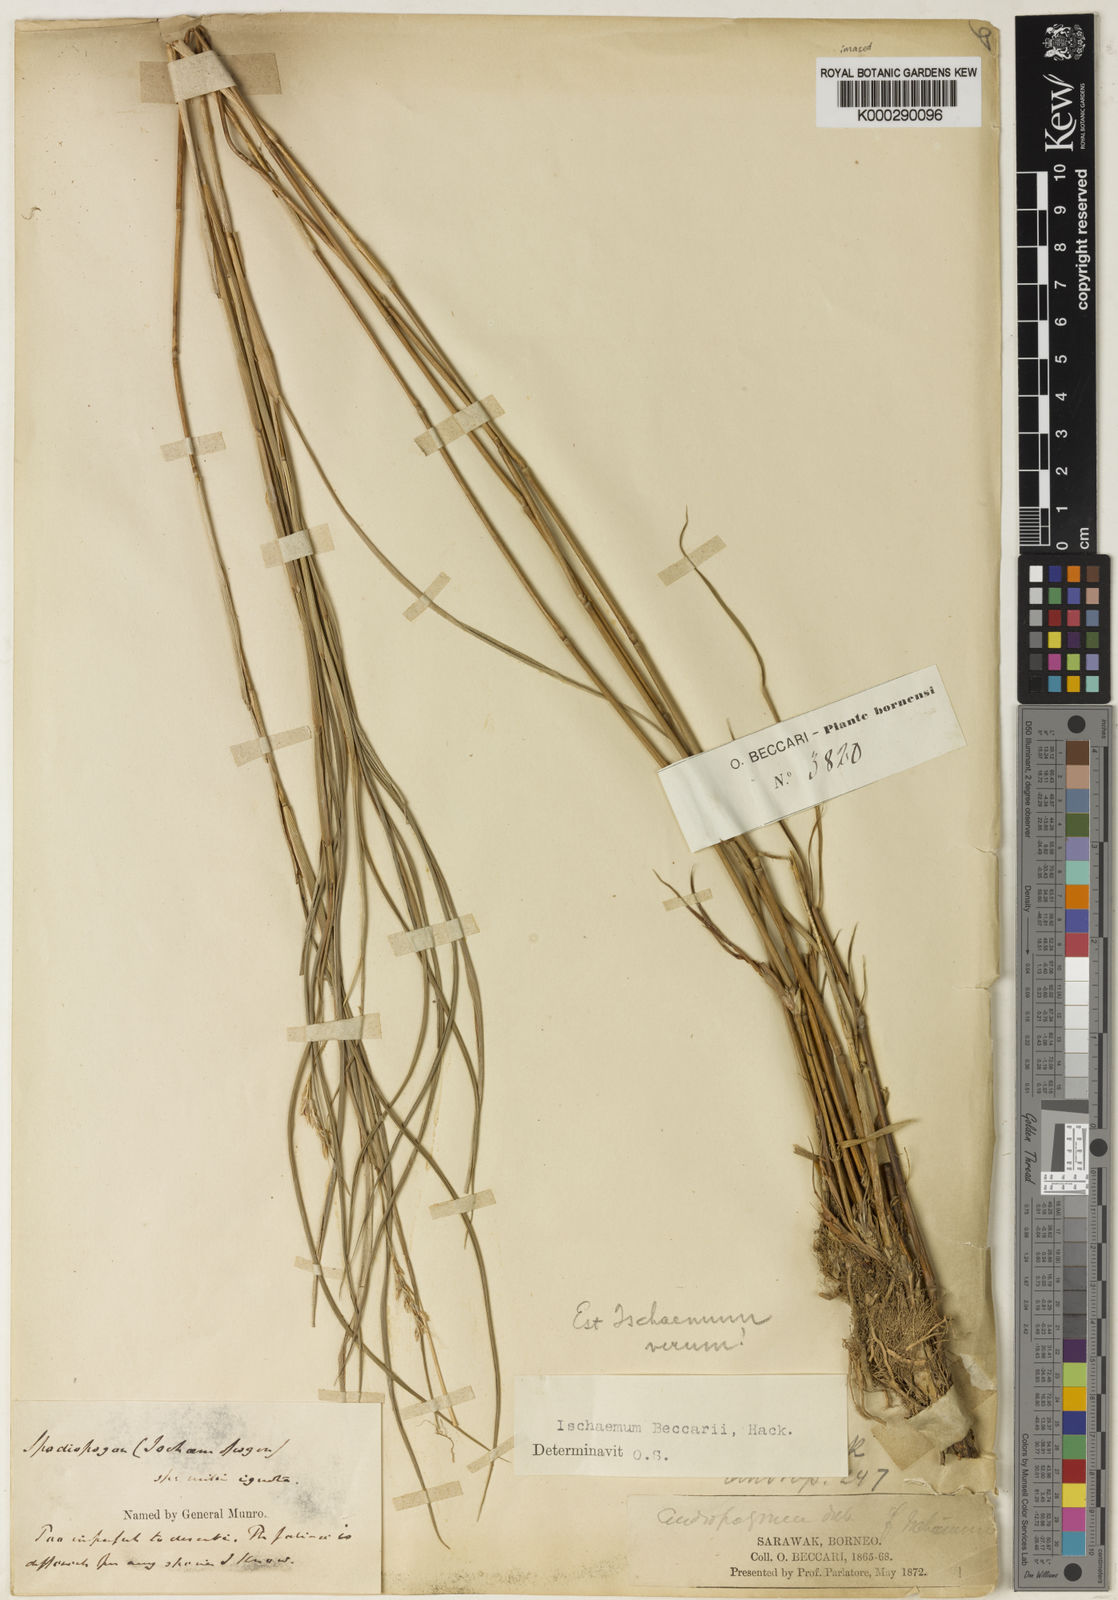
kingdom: Plantae
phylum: Tracheophyta
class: Liliopsida
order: Poales
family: Poaceae
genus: Ischaemum
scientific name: Ischaemum beccarii
